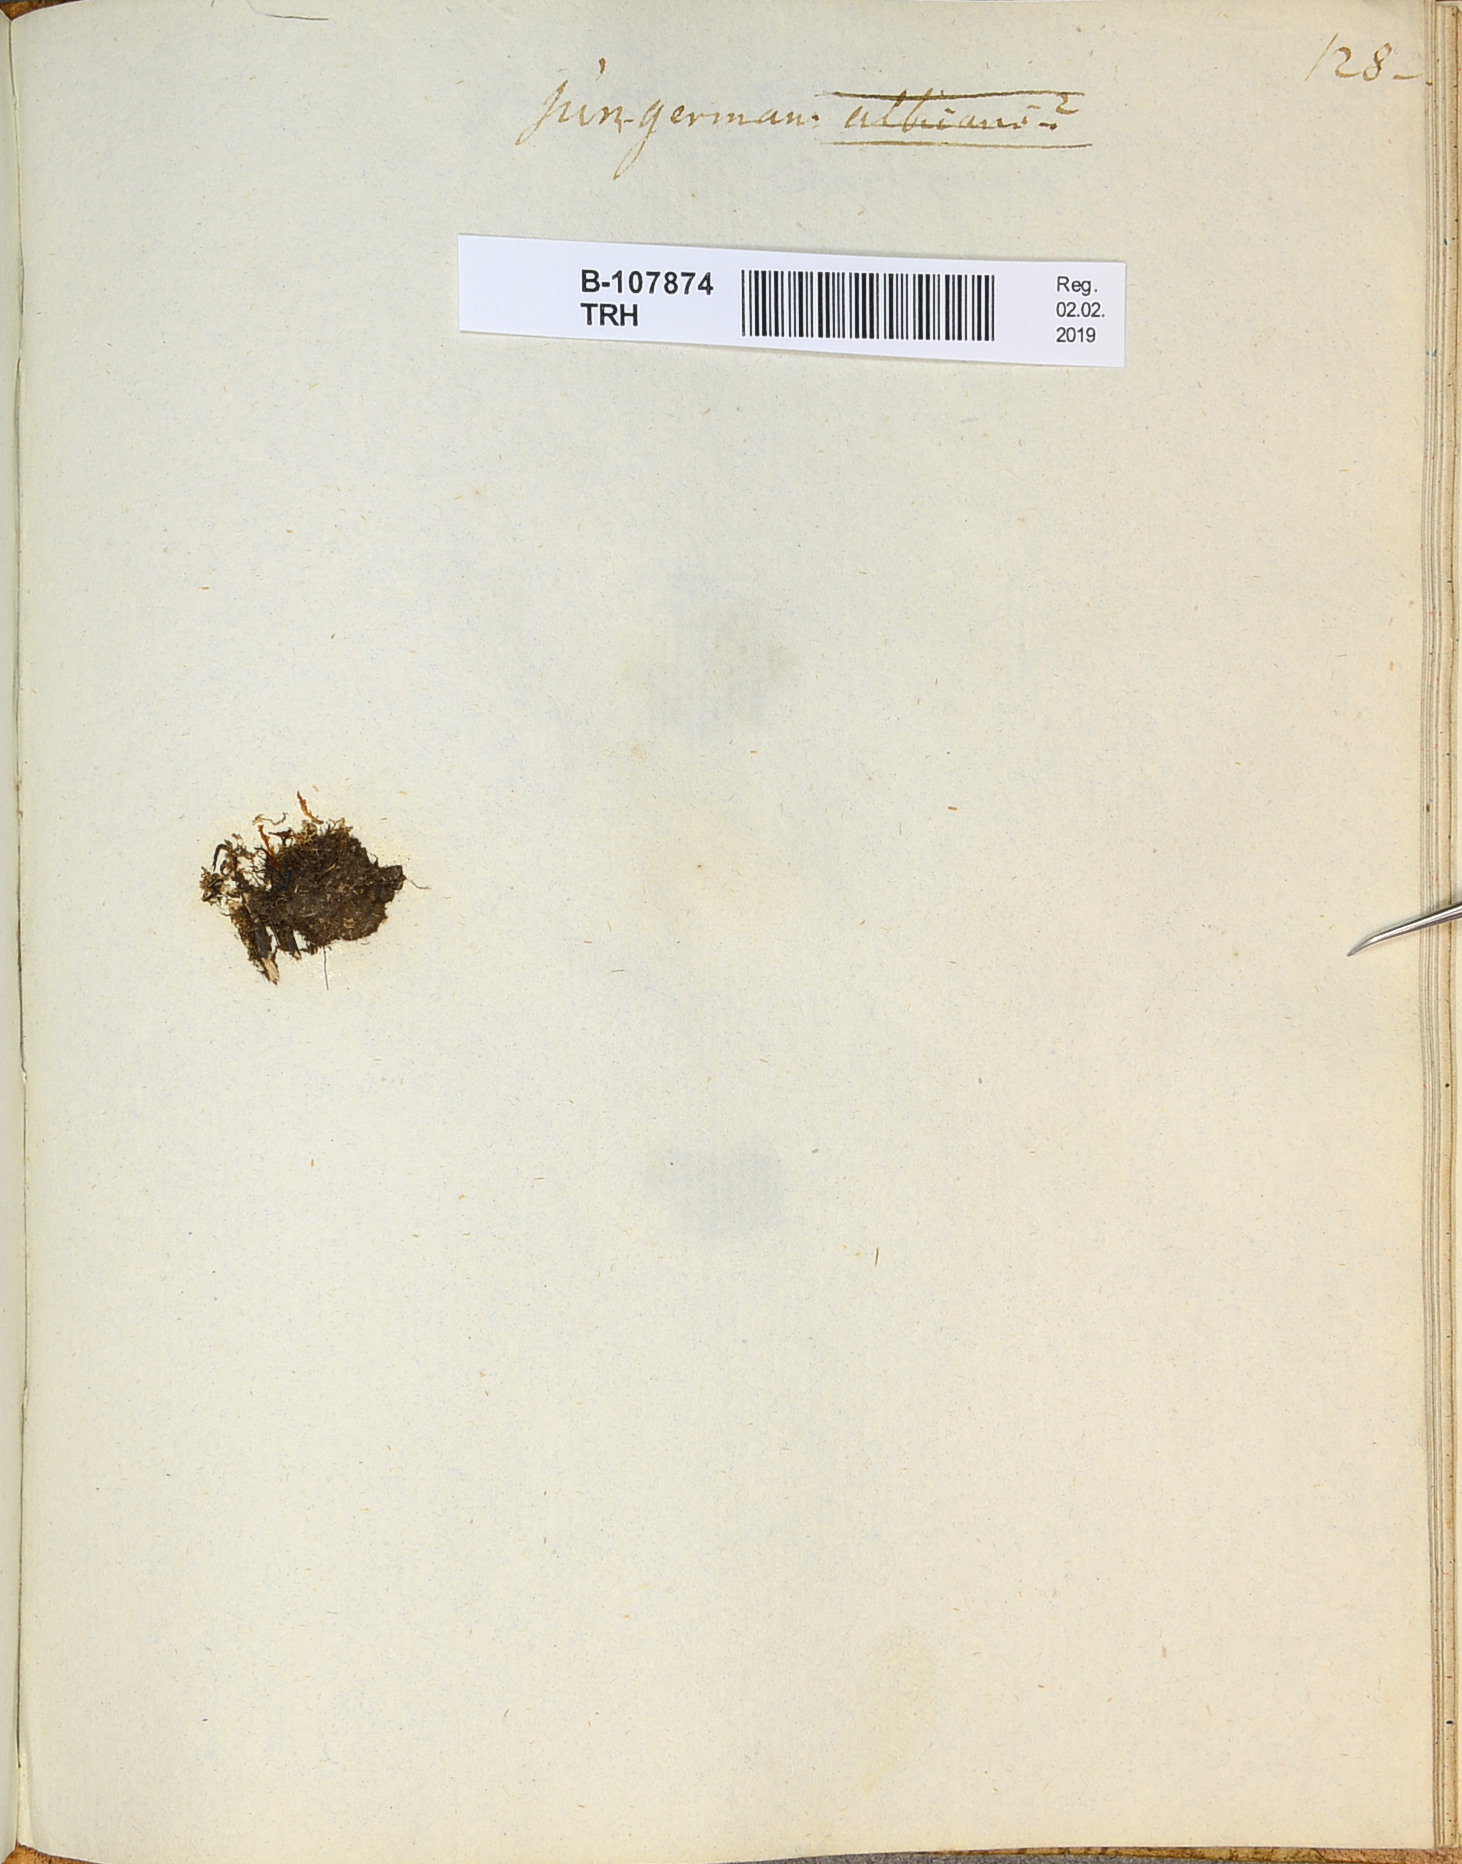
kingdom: Plantae
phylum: Marchantiophyta
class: Jungermanniopsida
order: Jungermanniales
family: Jungermanniaceae
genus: Jungermannia
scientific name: Jungermannia
